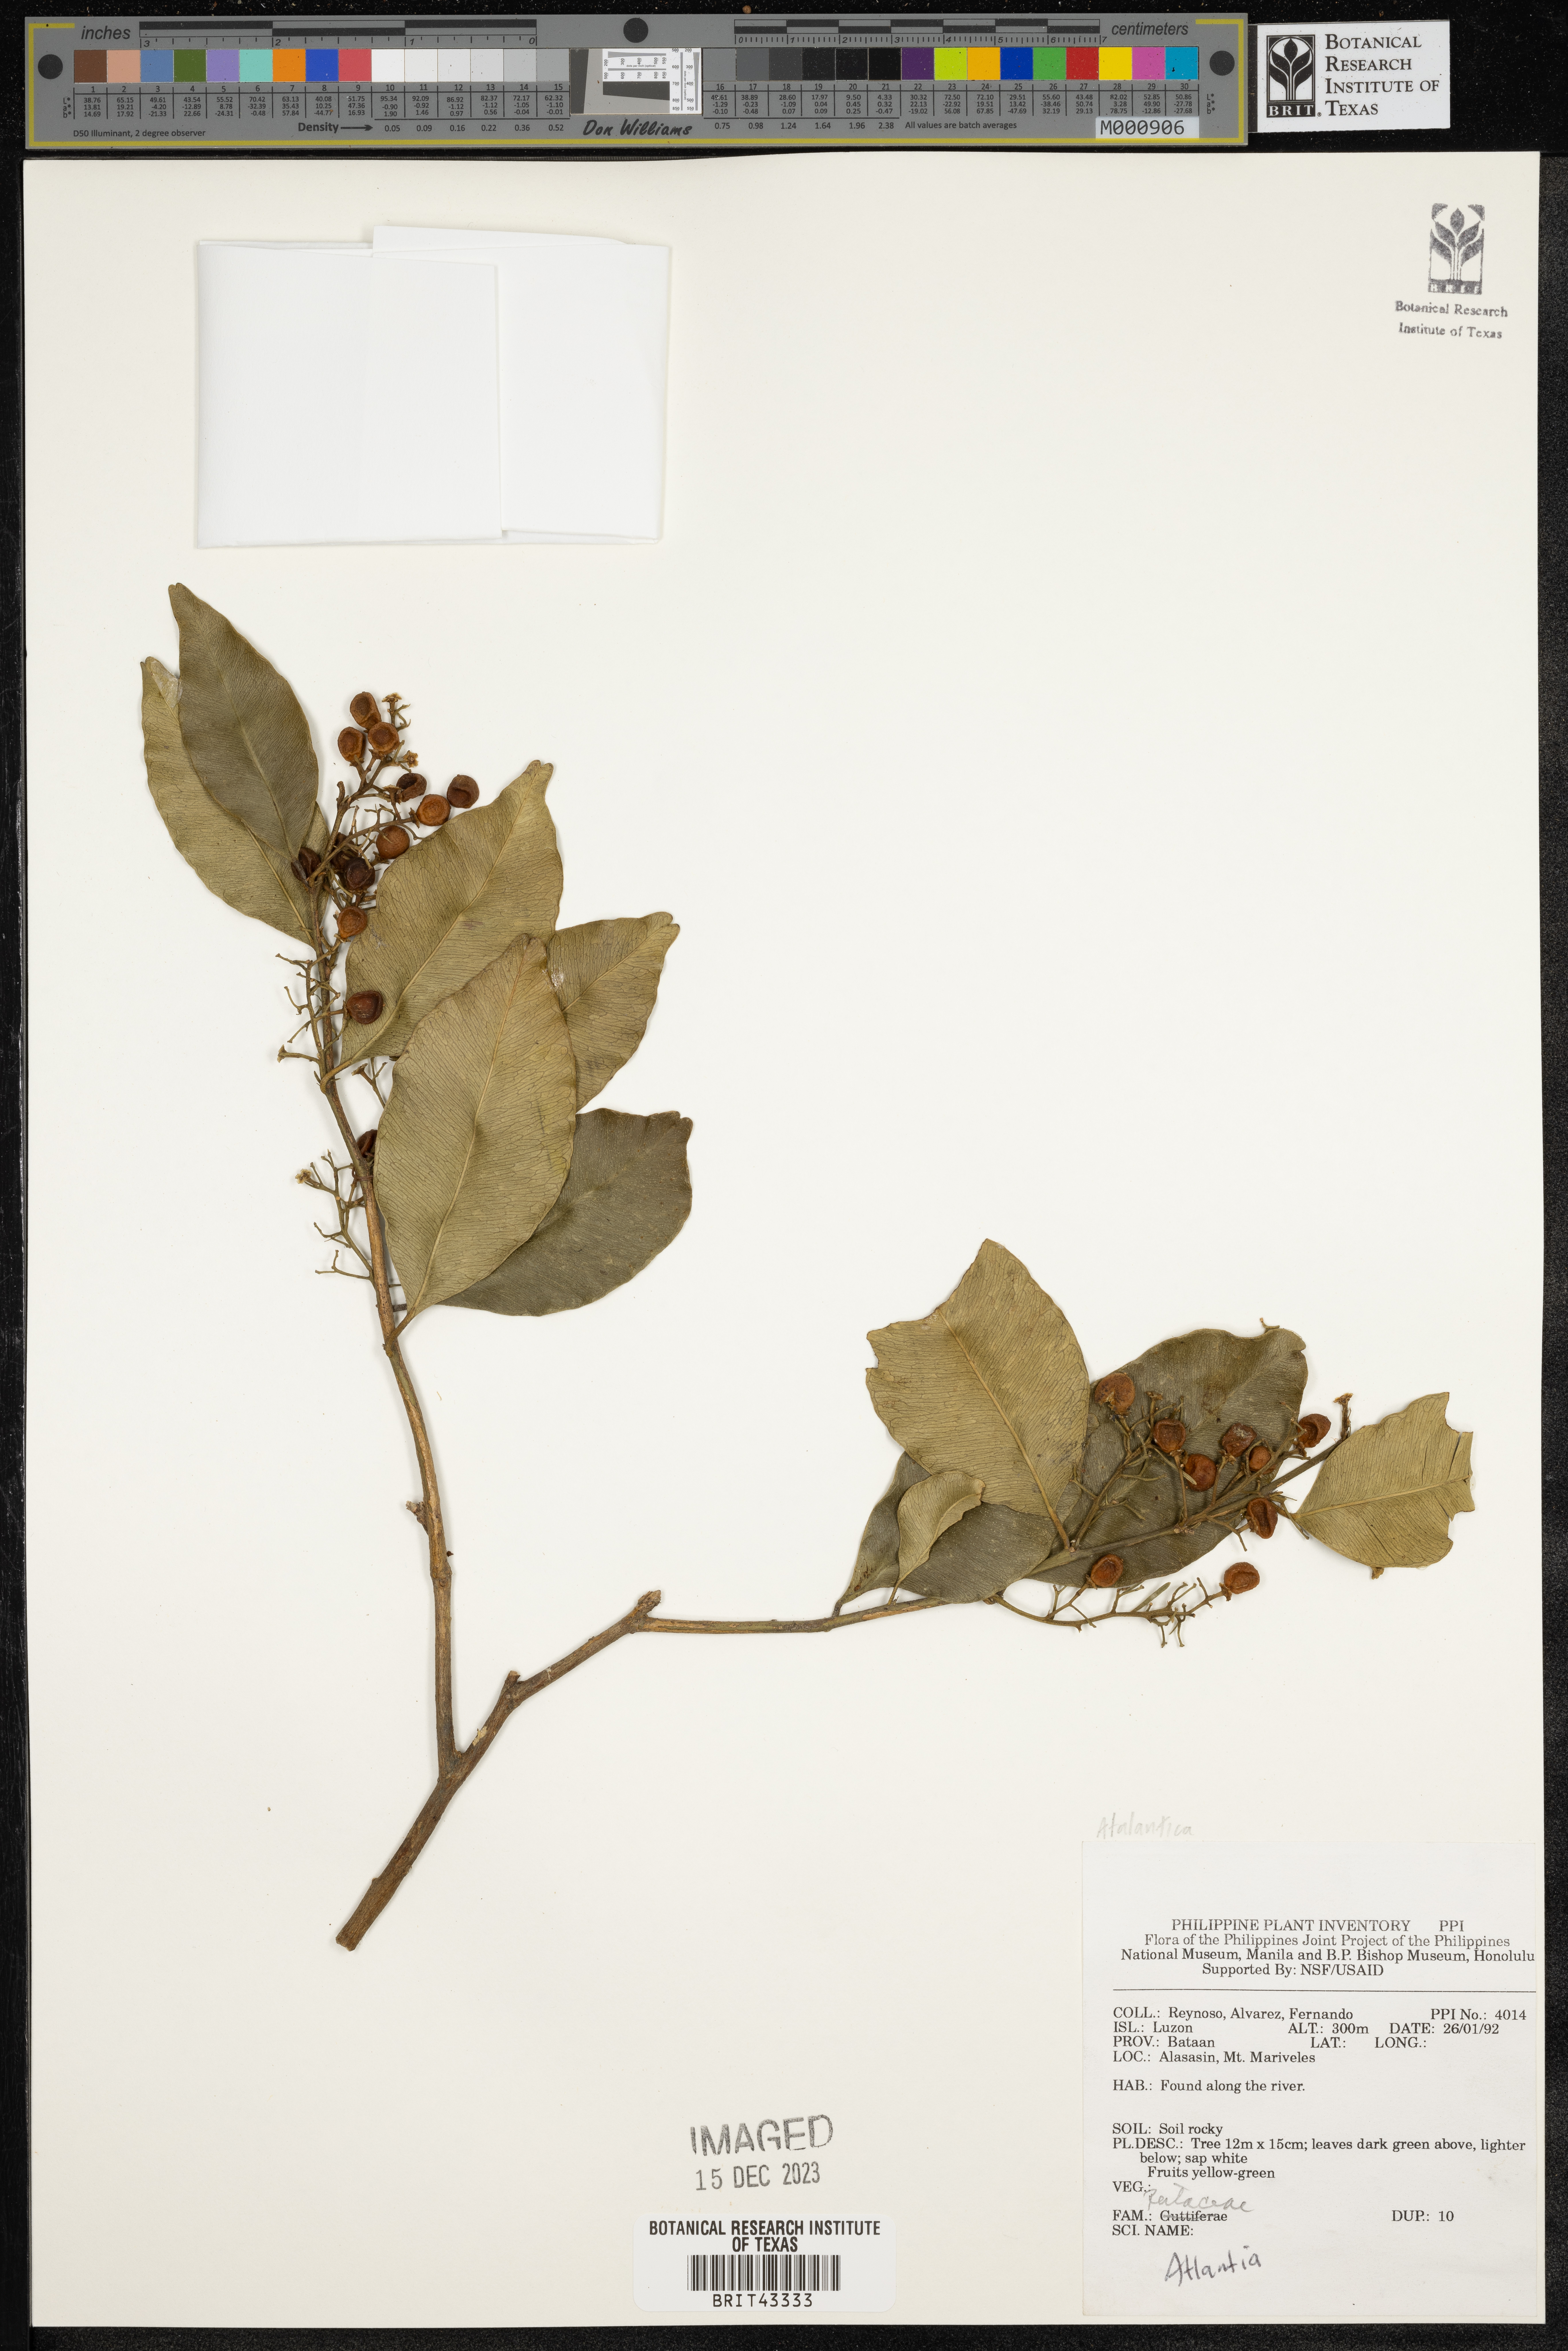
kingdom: Plantae
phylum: Tracheophyta
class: Magnoliopsida
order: Sapindales
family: Rutaceae
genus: Atalantia
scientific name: Atalantia
